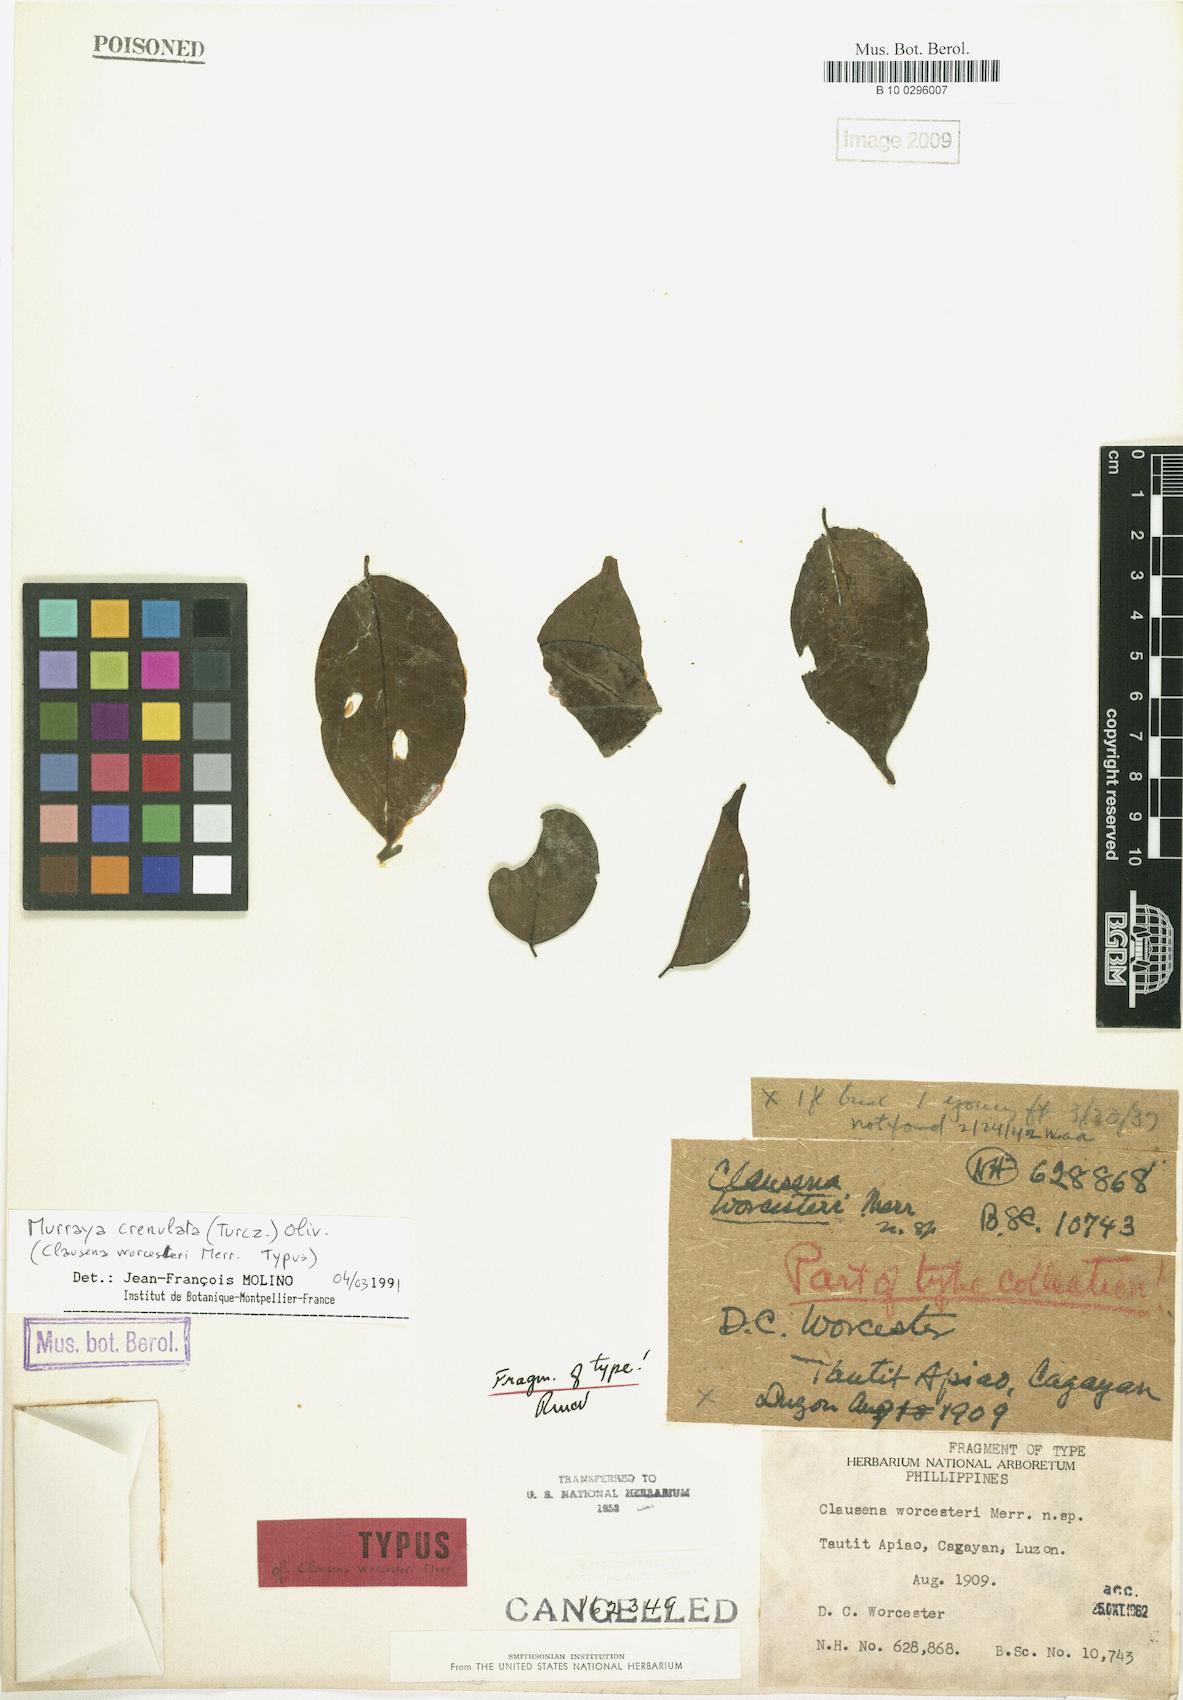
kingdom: Plantae
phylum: Tracheophyta
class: Magnoliopsida
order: Sapindales
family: Rutaceae
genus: Murraya
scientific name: Murraya crenulata
